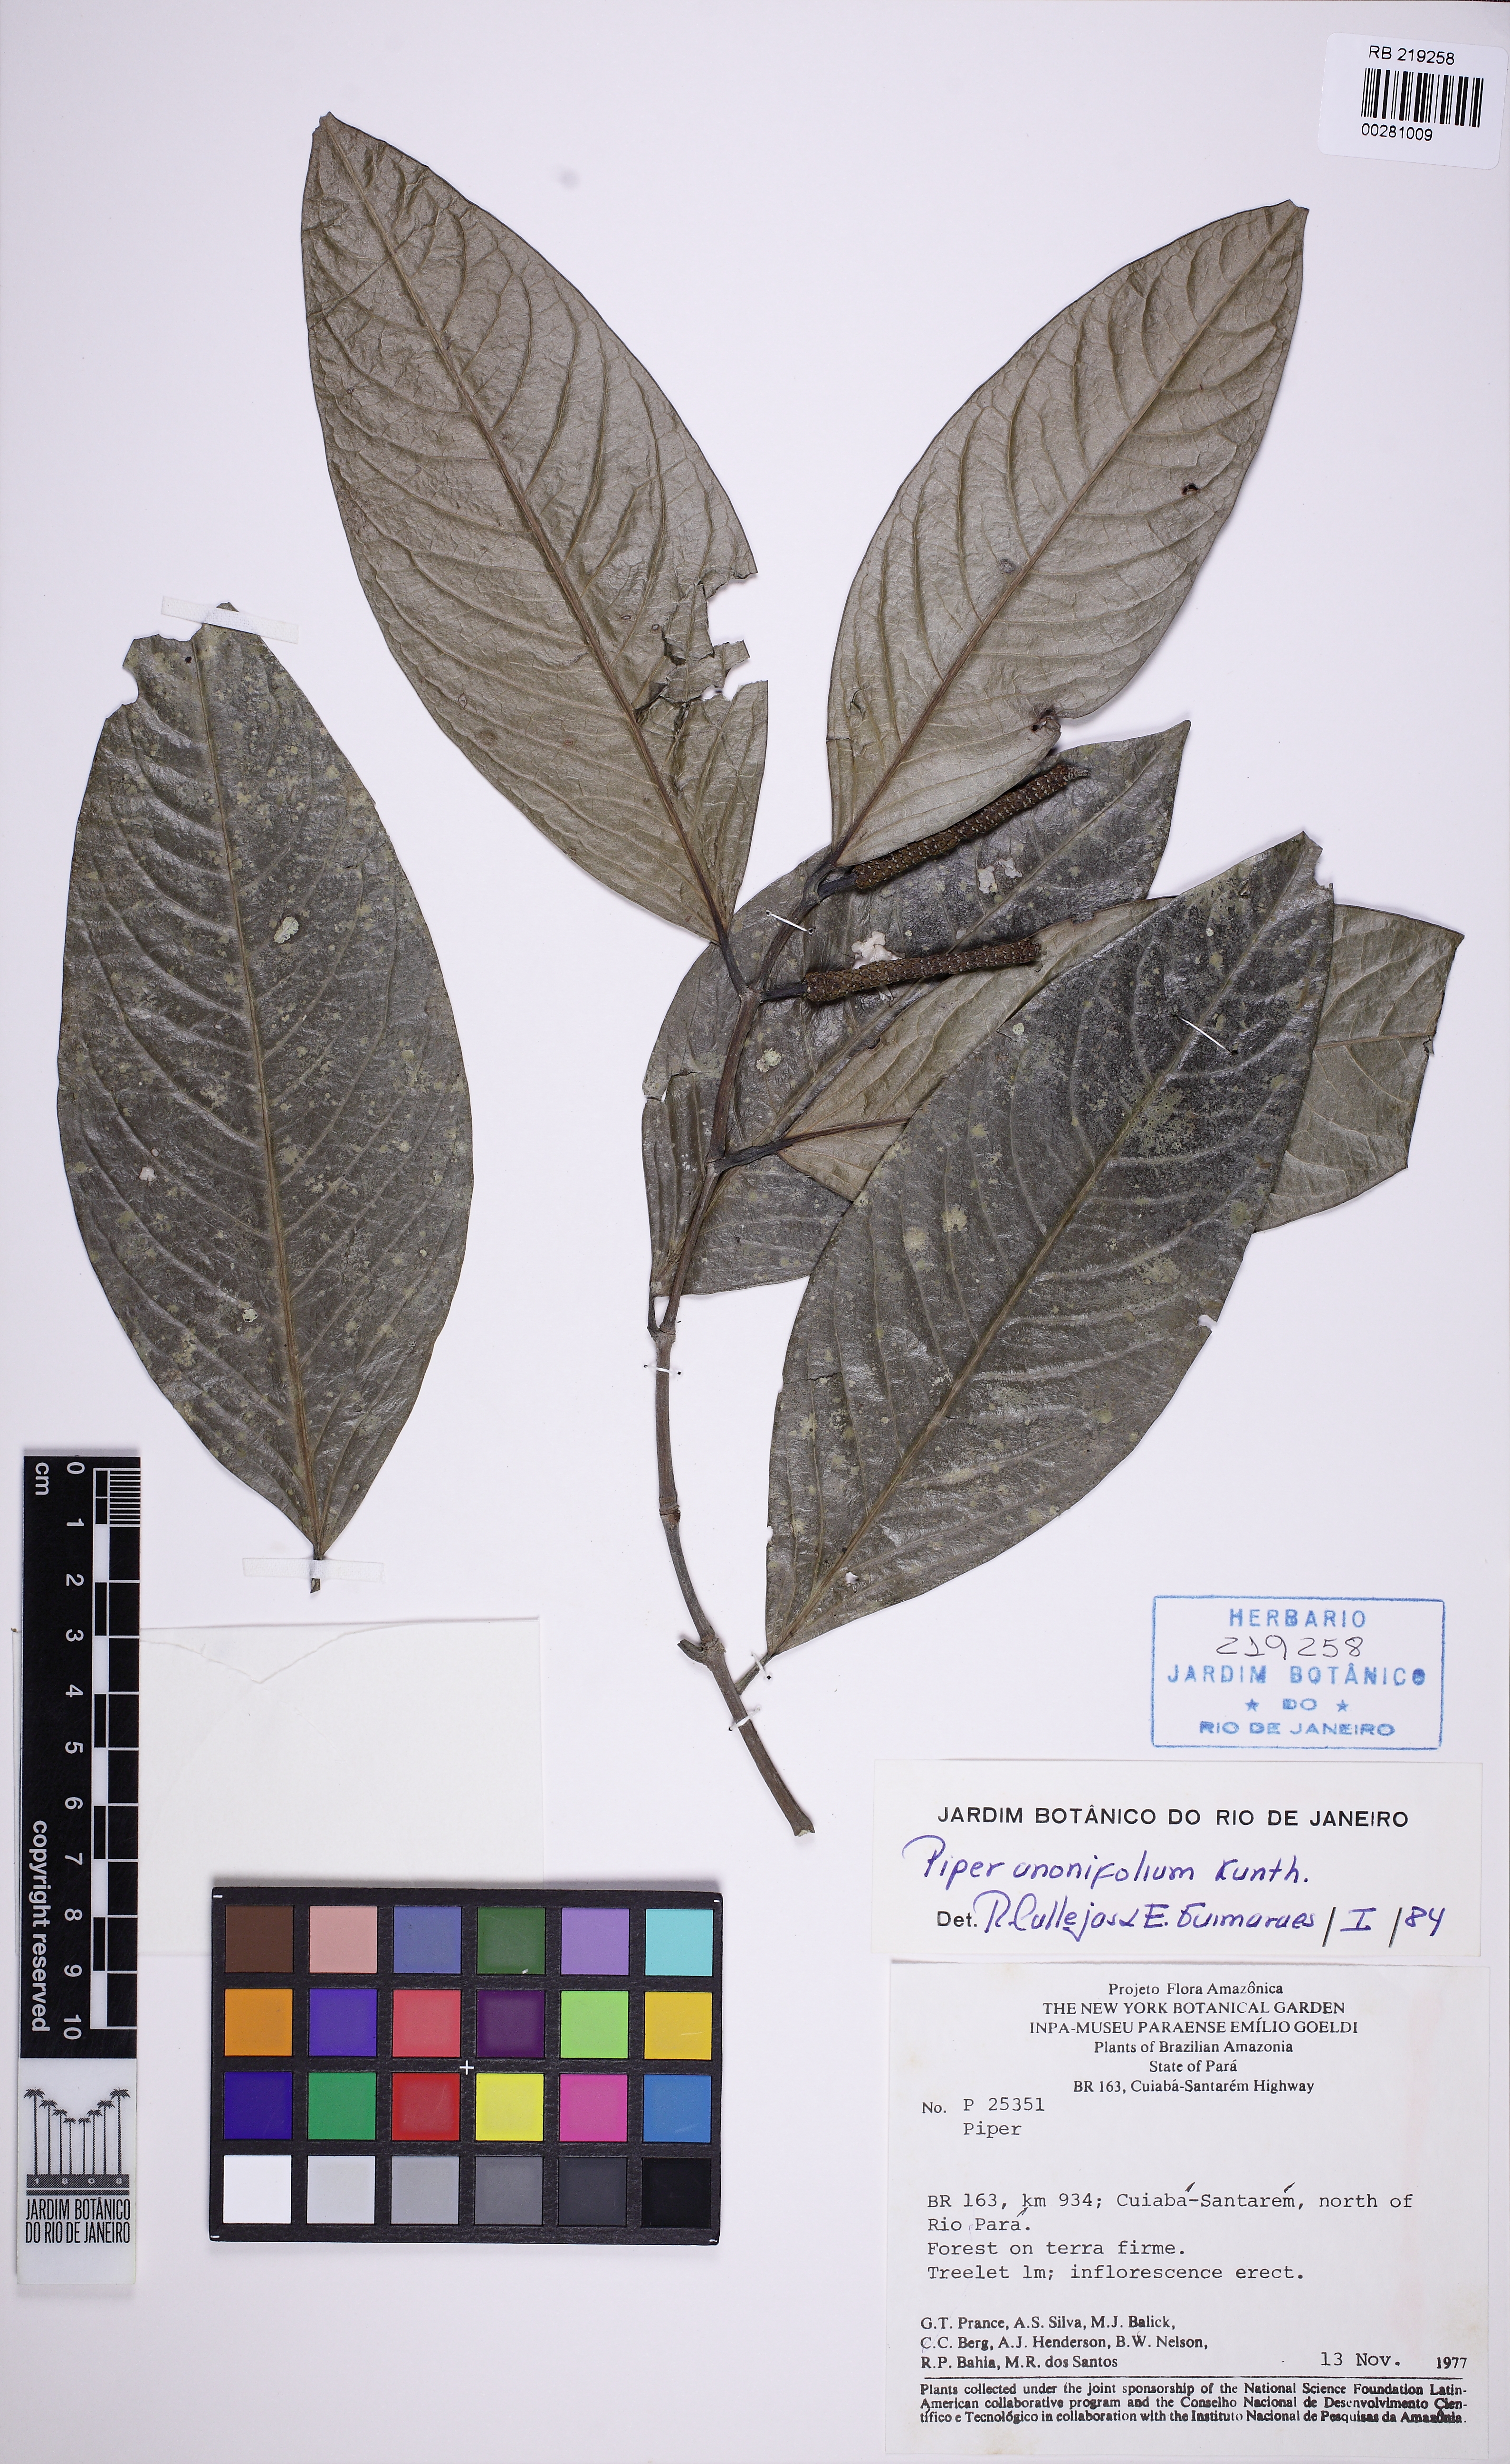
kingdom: Plantae
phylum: Tracheophyta
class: Magnoliopsida
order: Piperales
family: Piperaceae
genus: Piper
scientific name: Piper anonifolium
